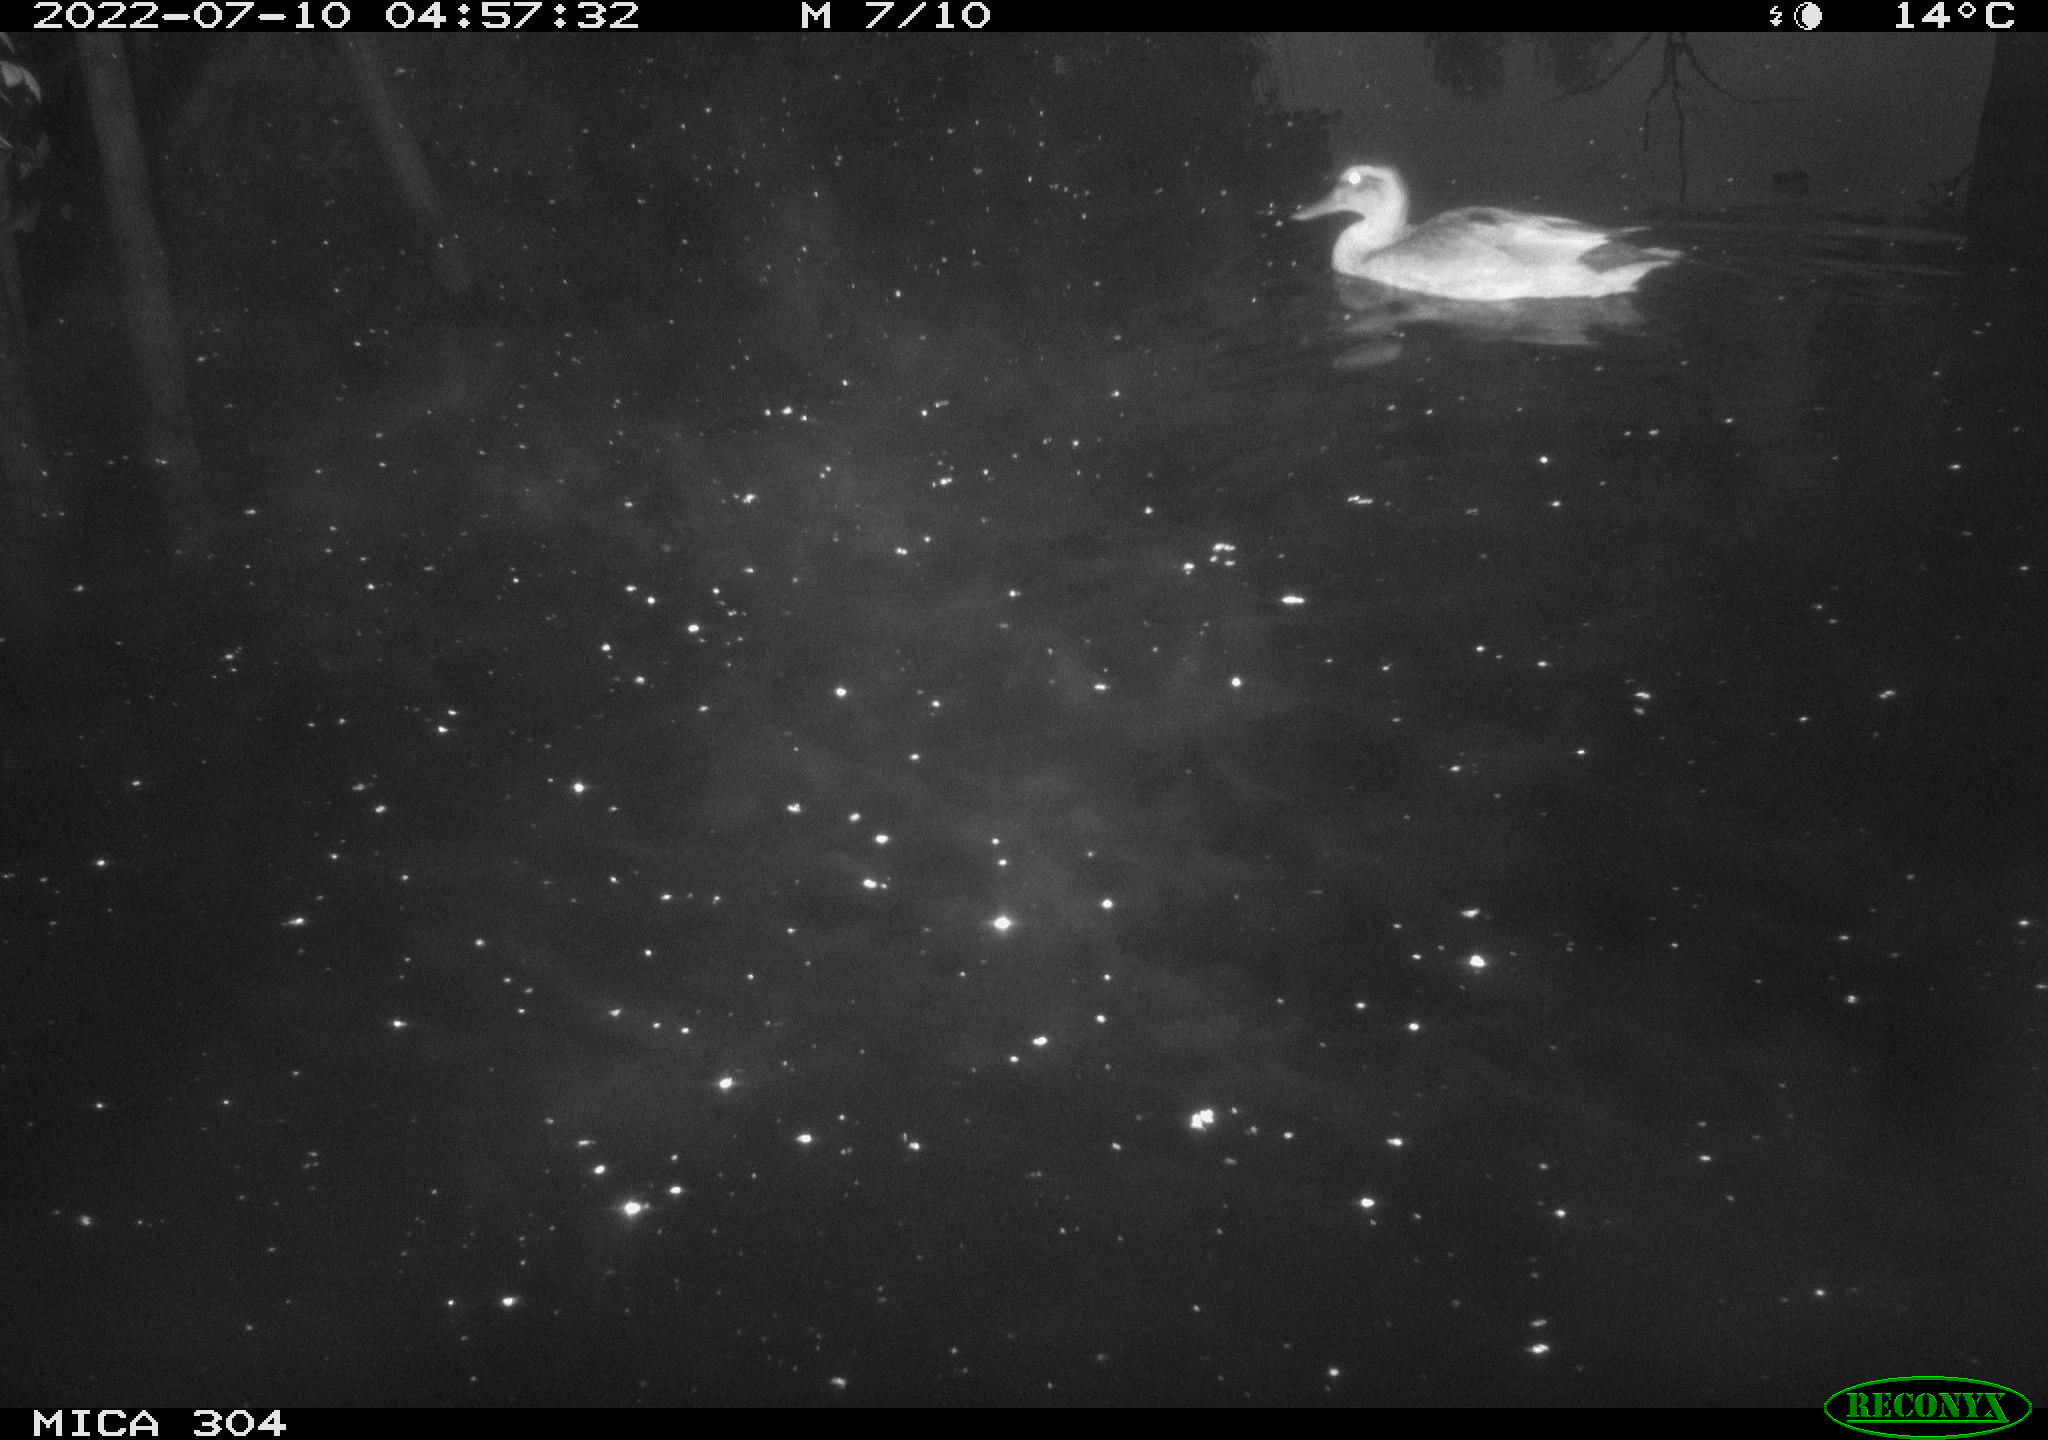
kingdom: Animalia
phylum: Chordata
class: Aves
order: Anseriformes
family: Anatidae
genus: Mareca
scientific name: Mareca strepera
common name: Gadwall
